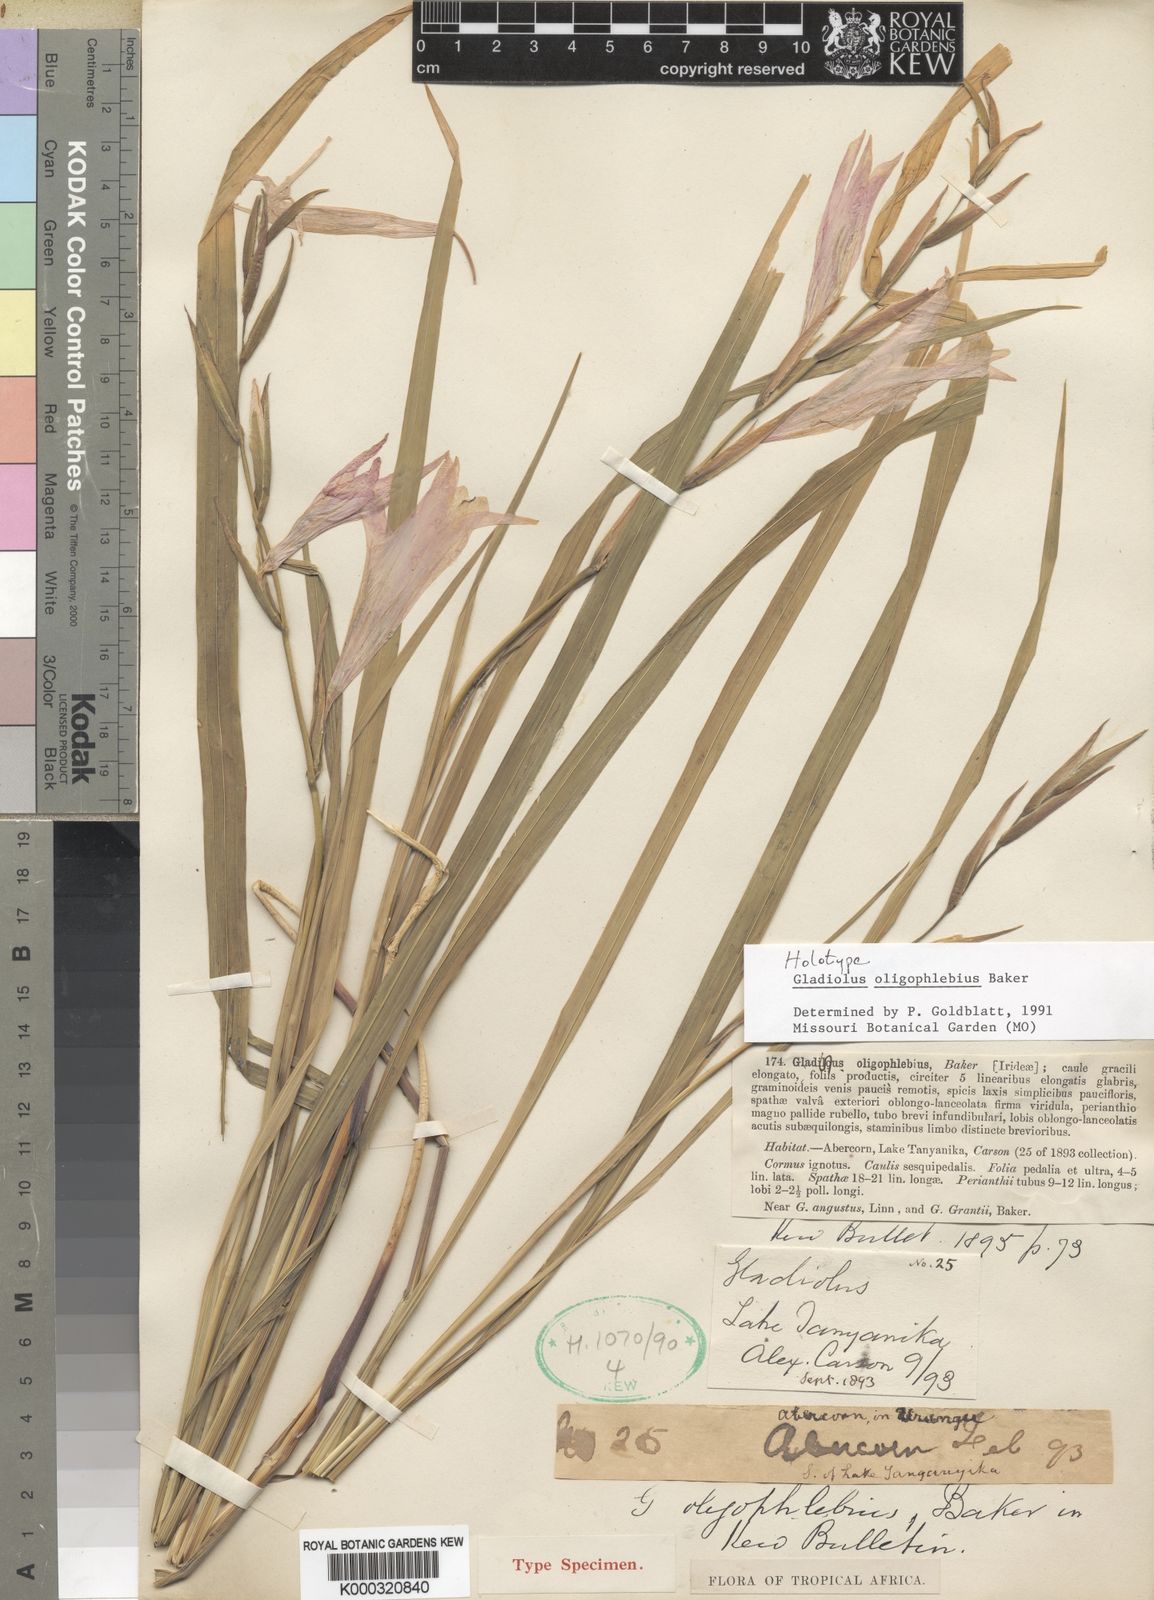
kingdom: Plantae
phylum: Tracheophyta
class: Liliopsida
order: Asparagales
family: Iridaceae
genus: Gladiolus
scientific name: Gladiolus oligophlebius
